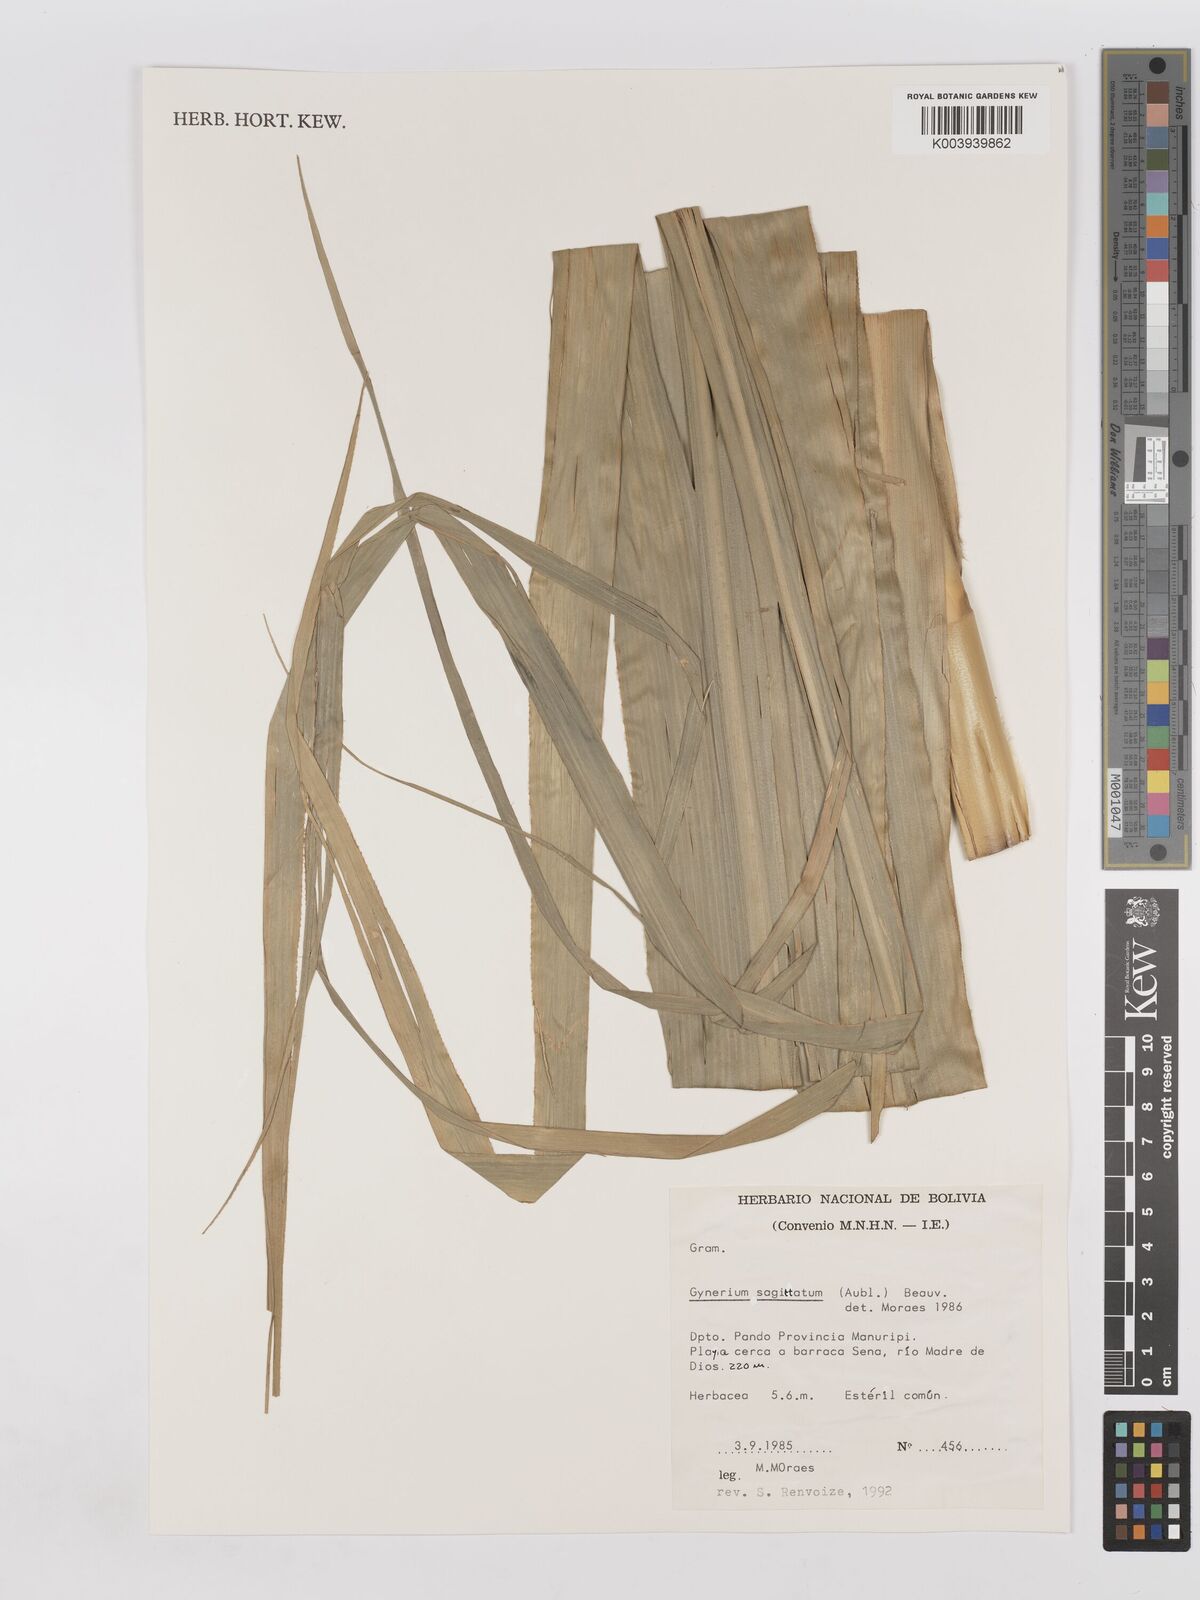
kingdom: Plantae
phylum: Tracheophyta
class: Liliopsida
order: Poales
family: Poaceae
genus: Gynerium
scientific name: Gynerium sagittatum
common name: Wild cane
